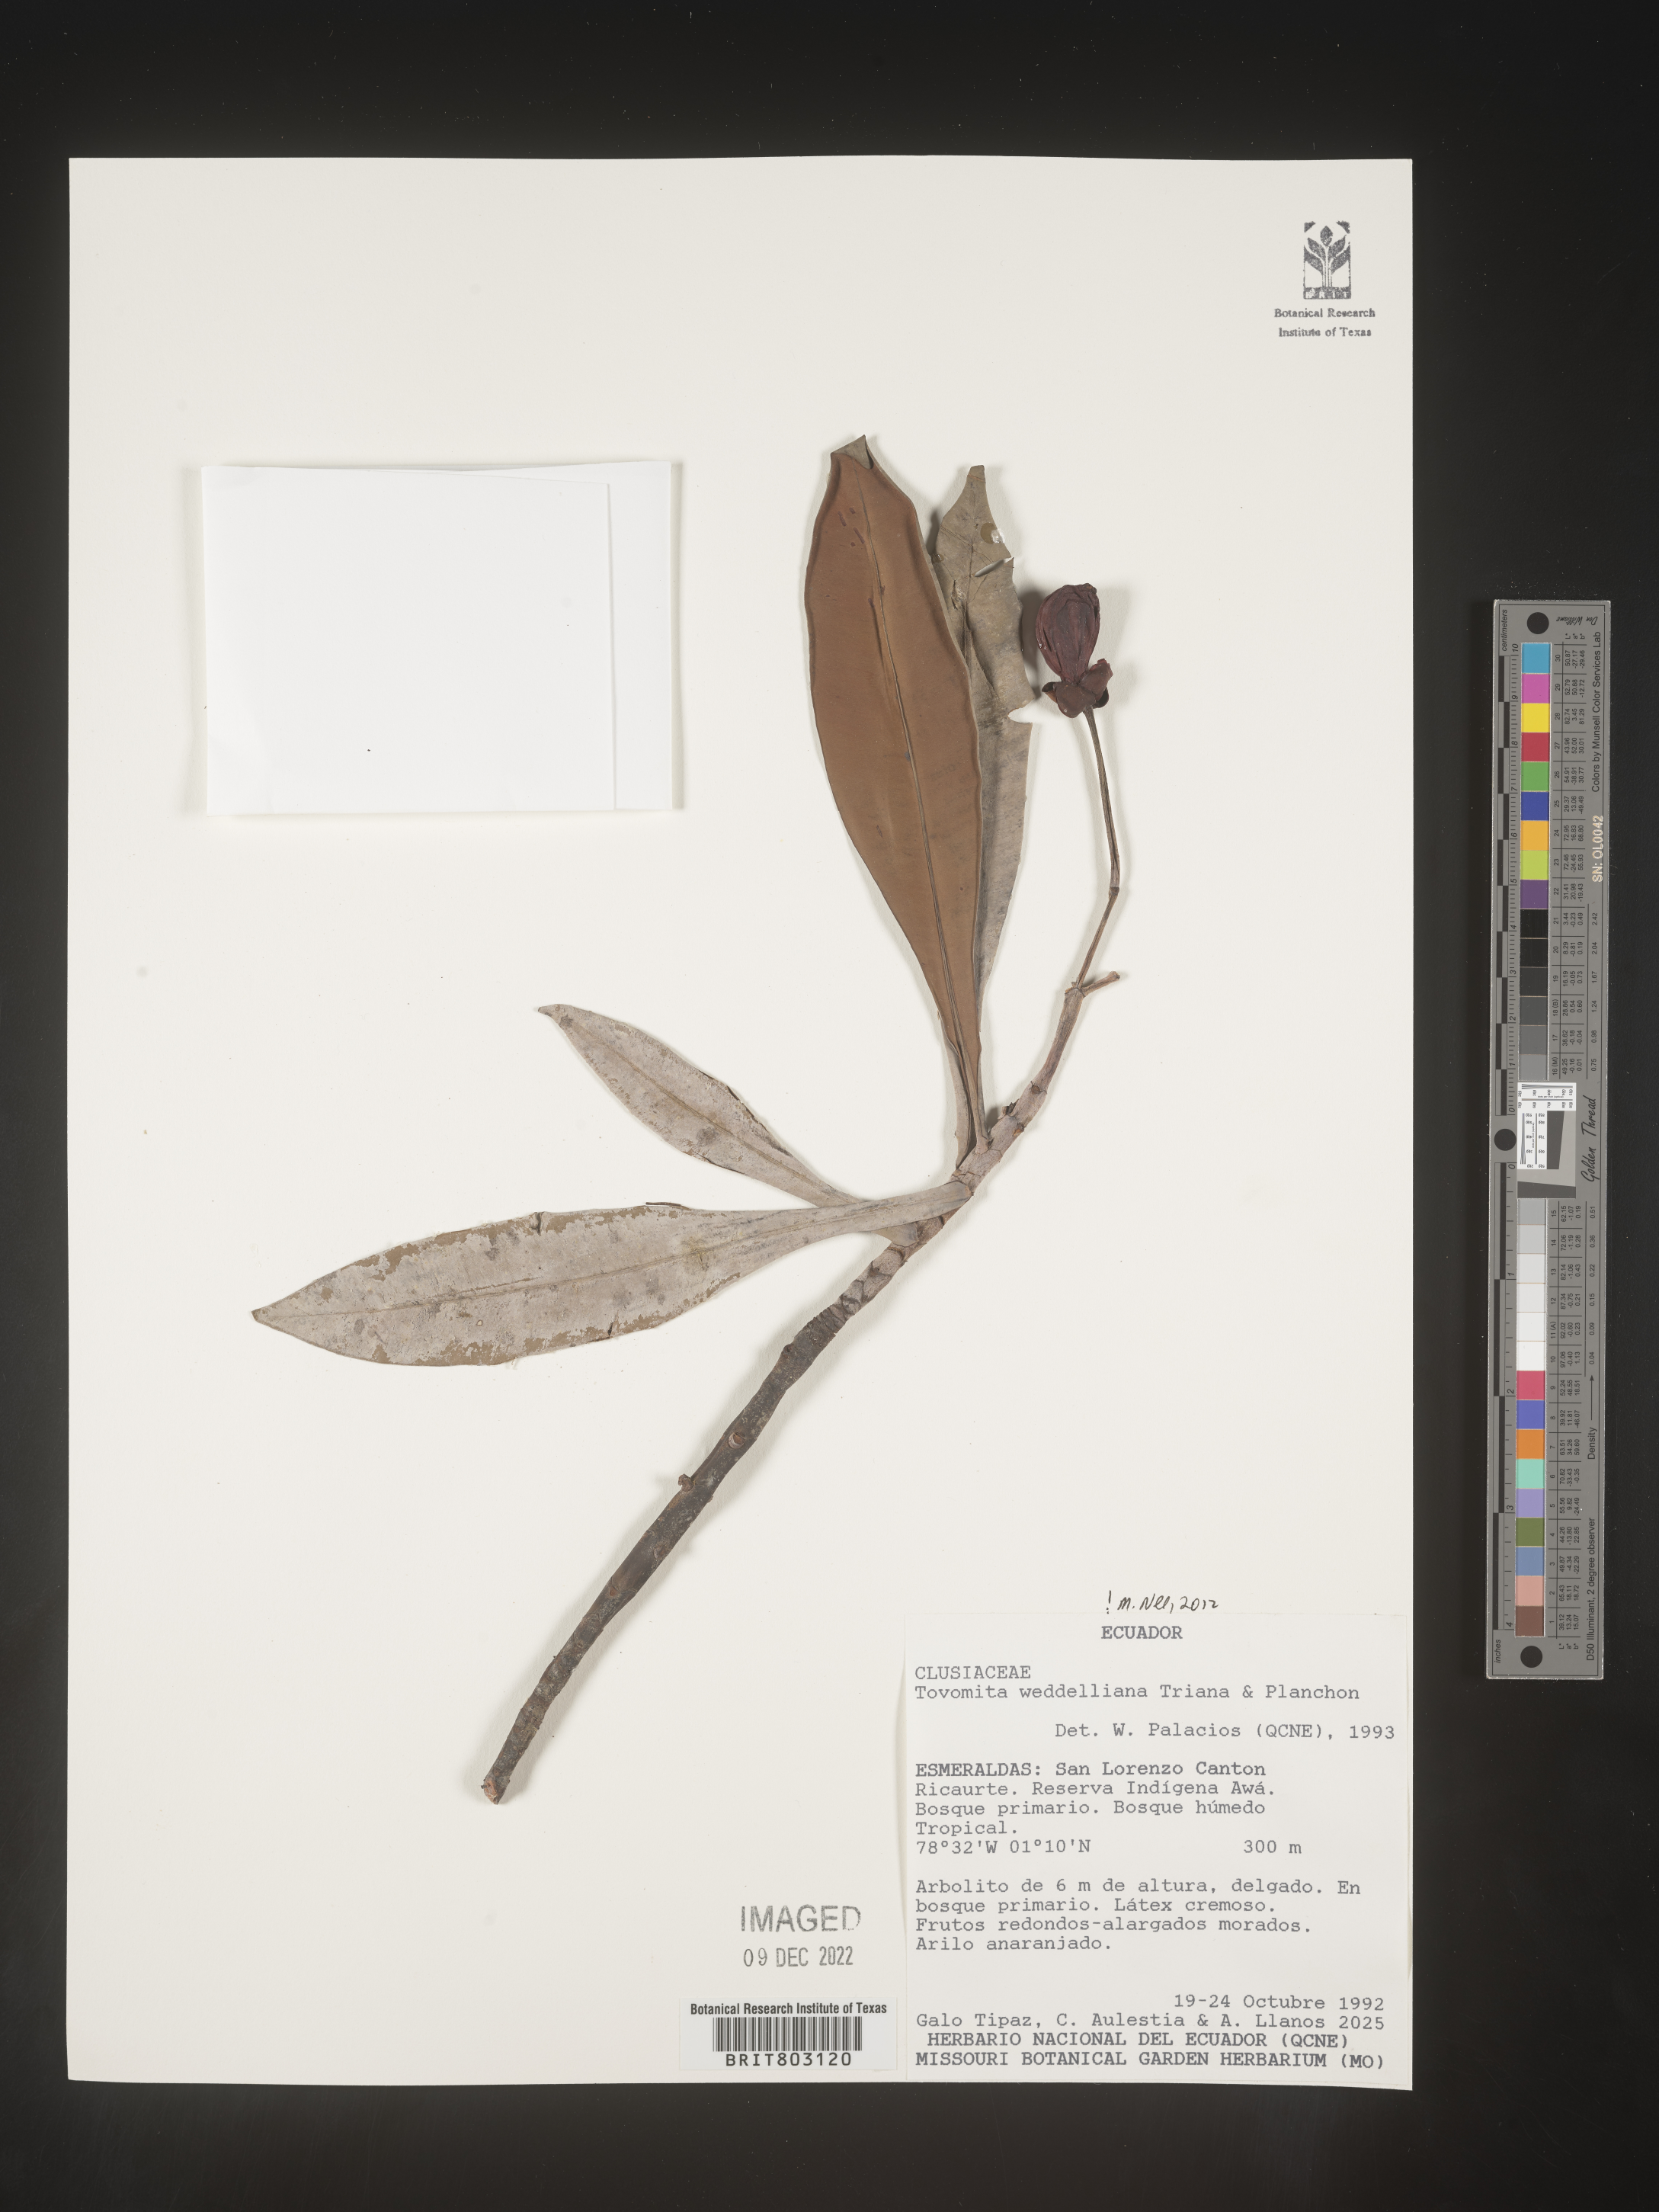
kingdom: Plantae
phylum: Tracheophyta
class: Magnoliopsida
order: Malpighiales
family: Clusiaceae
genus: Arawakia
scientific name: Arawakia weddelliana
